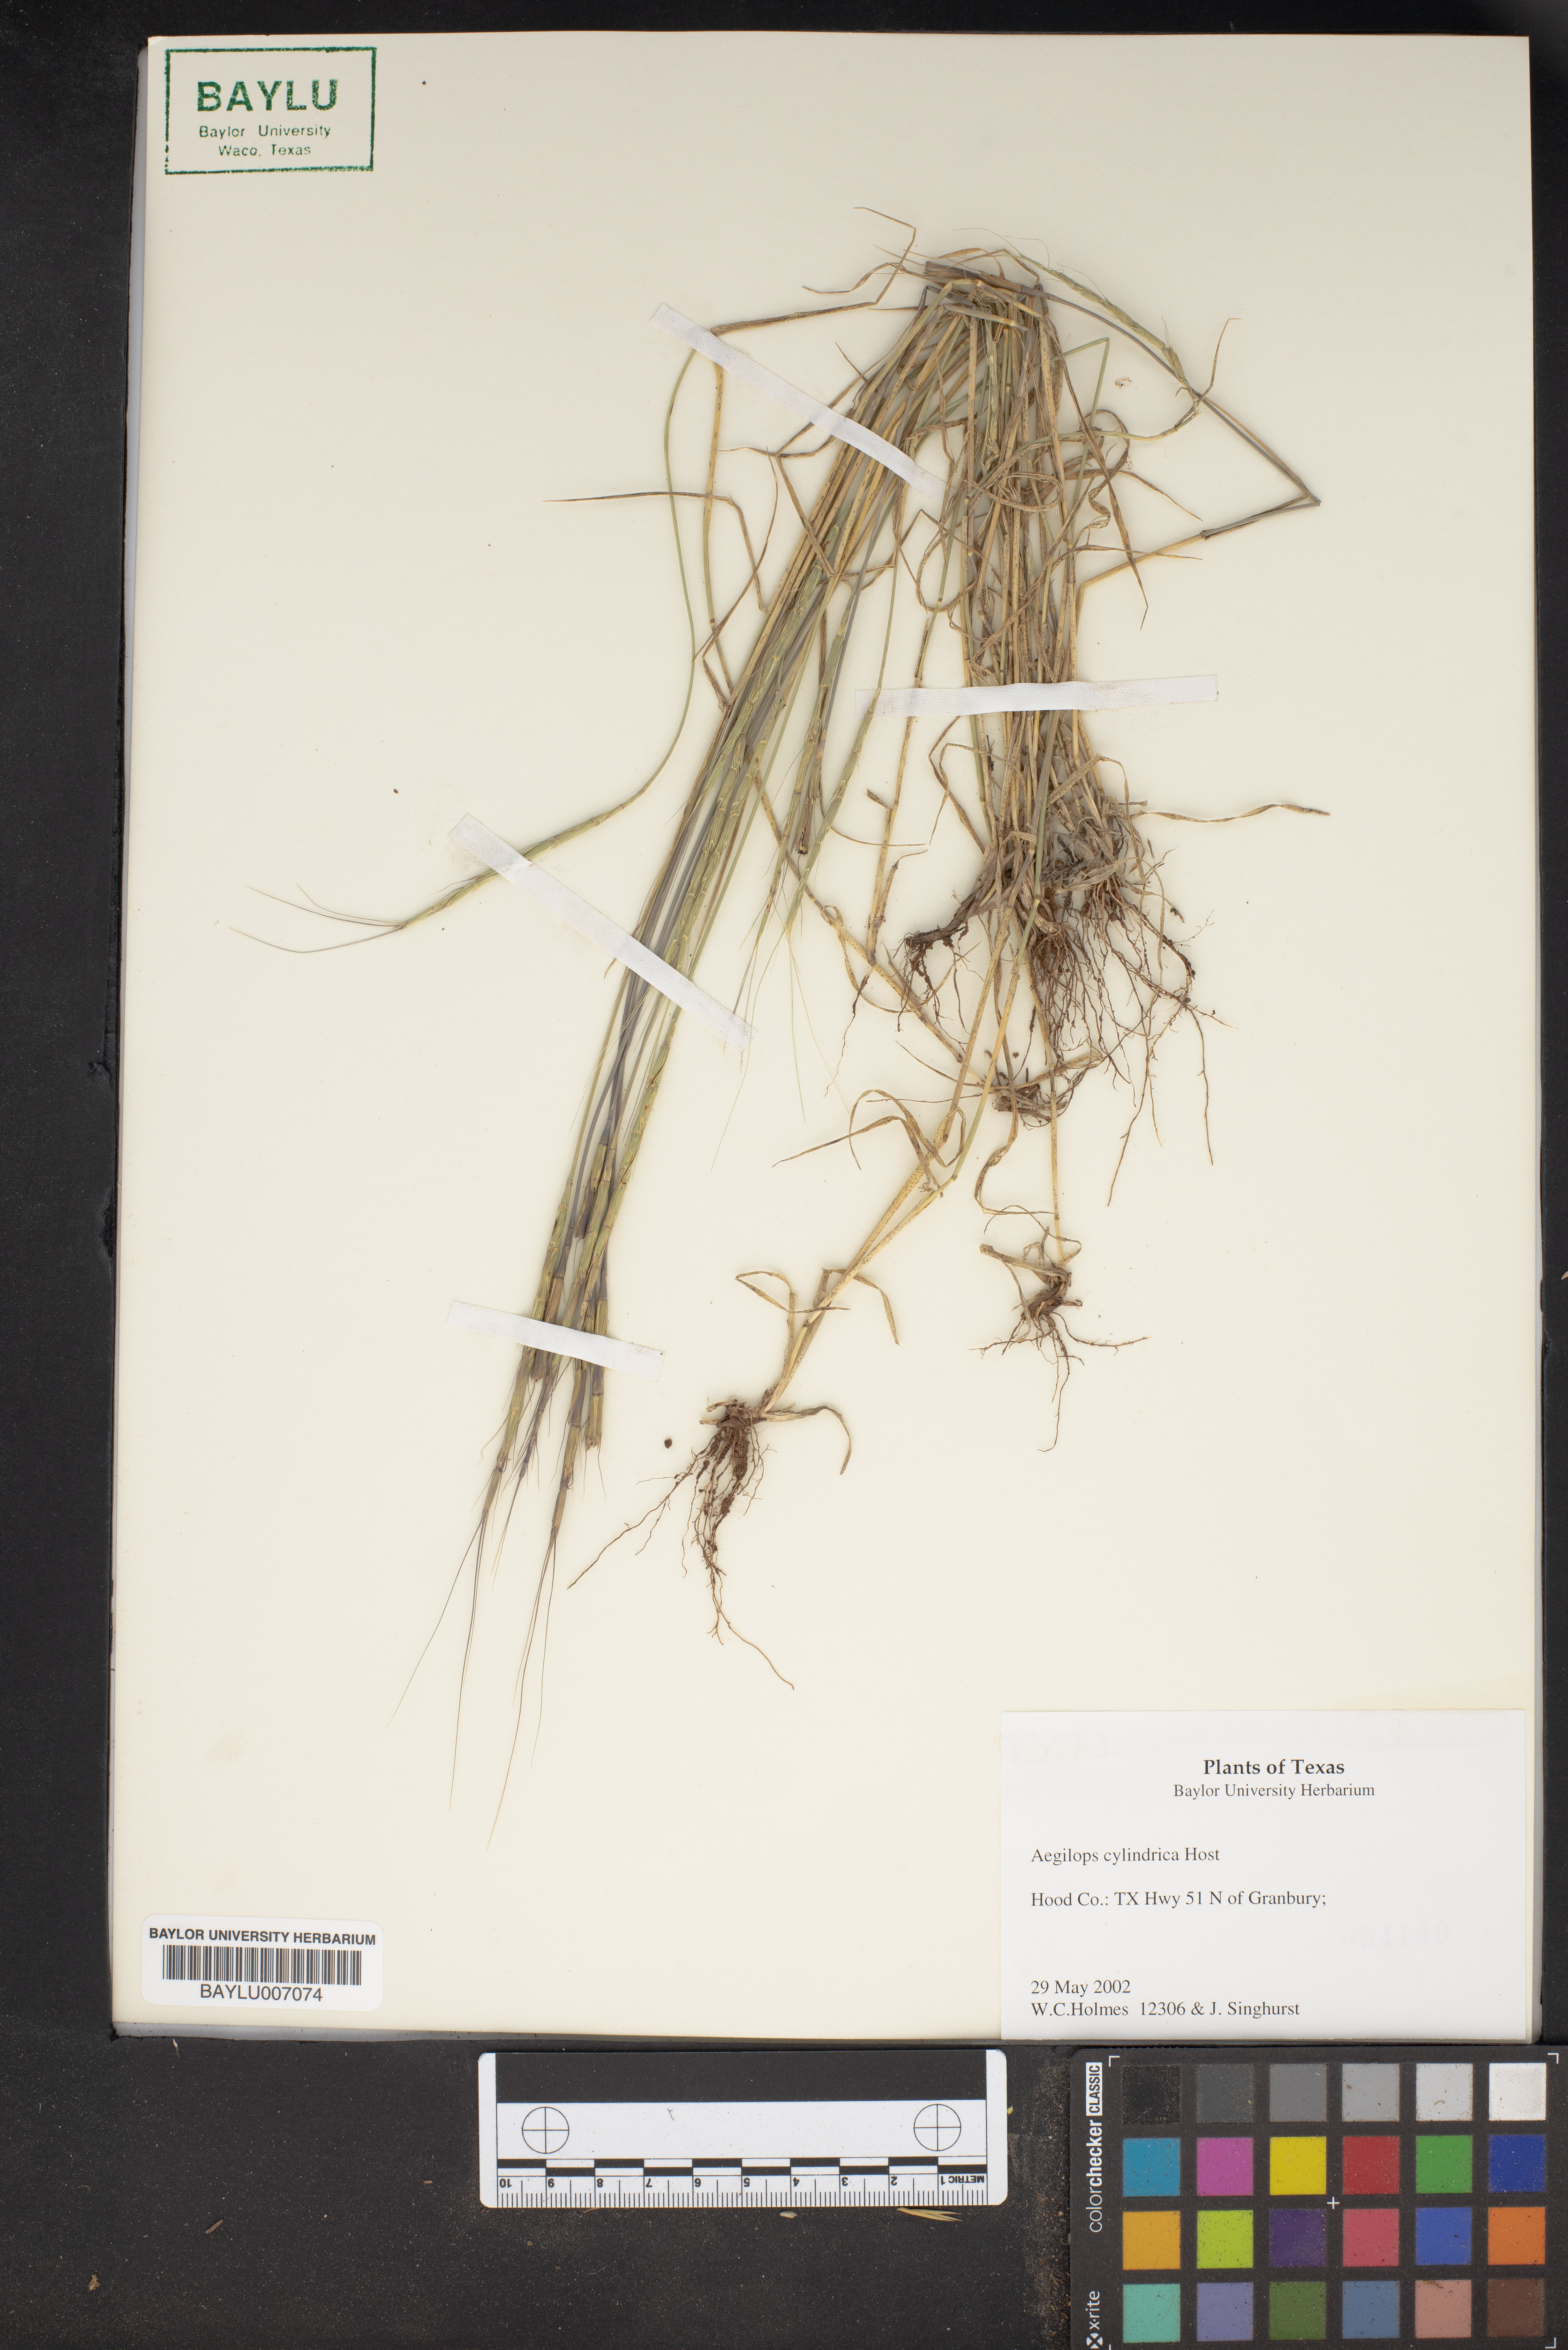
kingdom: Plantae
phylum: Tracheophyta
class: Liliopsida
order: Poales
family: Poaceae
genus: Aegilops
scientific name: Aegilops cylindrica
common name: Jointed goatgrass
